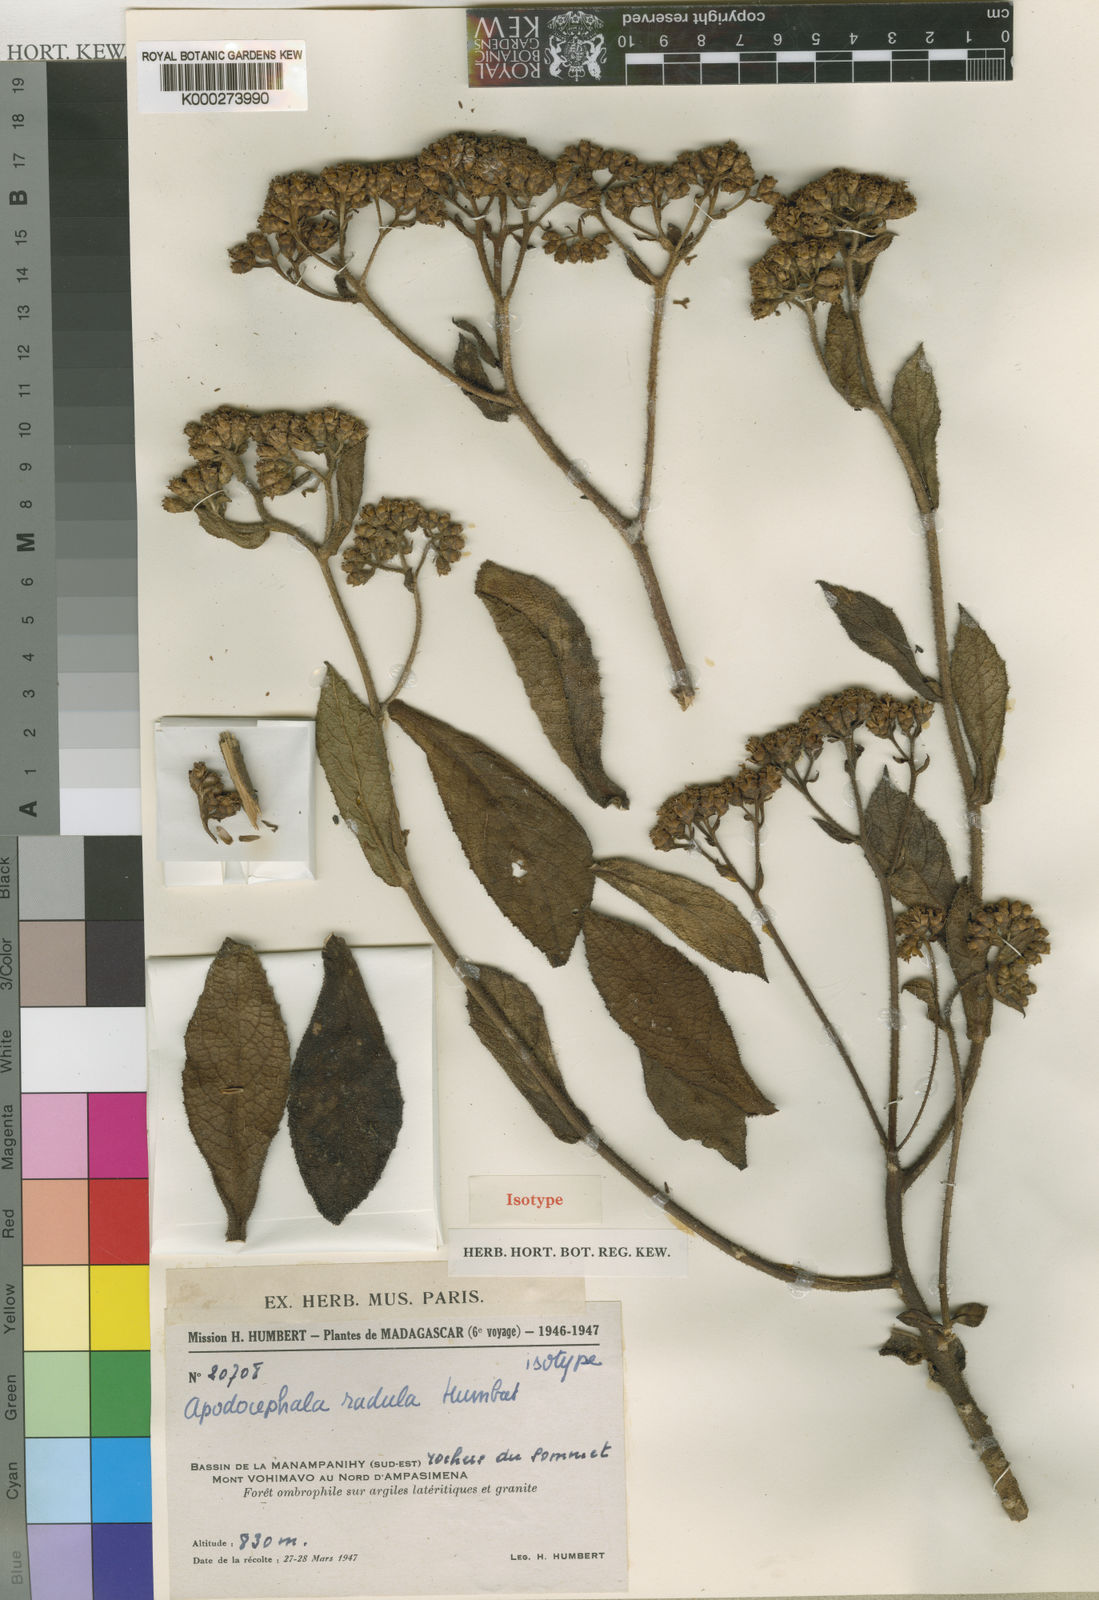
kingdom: Plantae
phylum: Tracheophyta
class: Magnoliopsida
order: Asterales
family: Asteraceae
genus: Apodocephala
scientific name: Apodocephala radula
